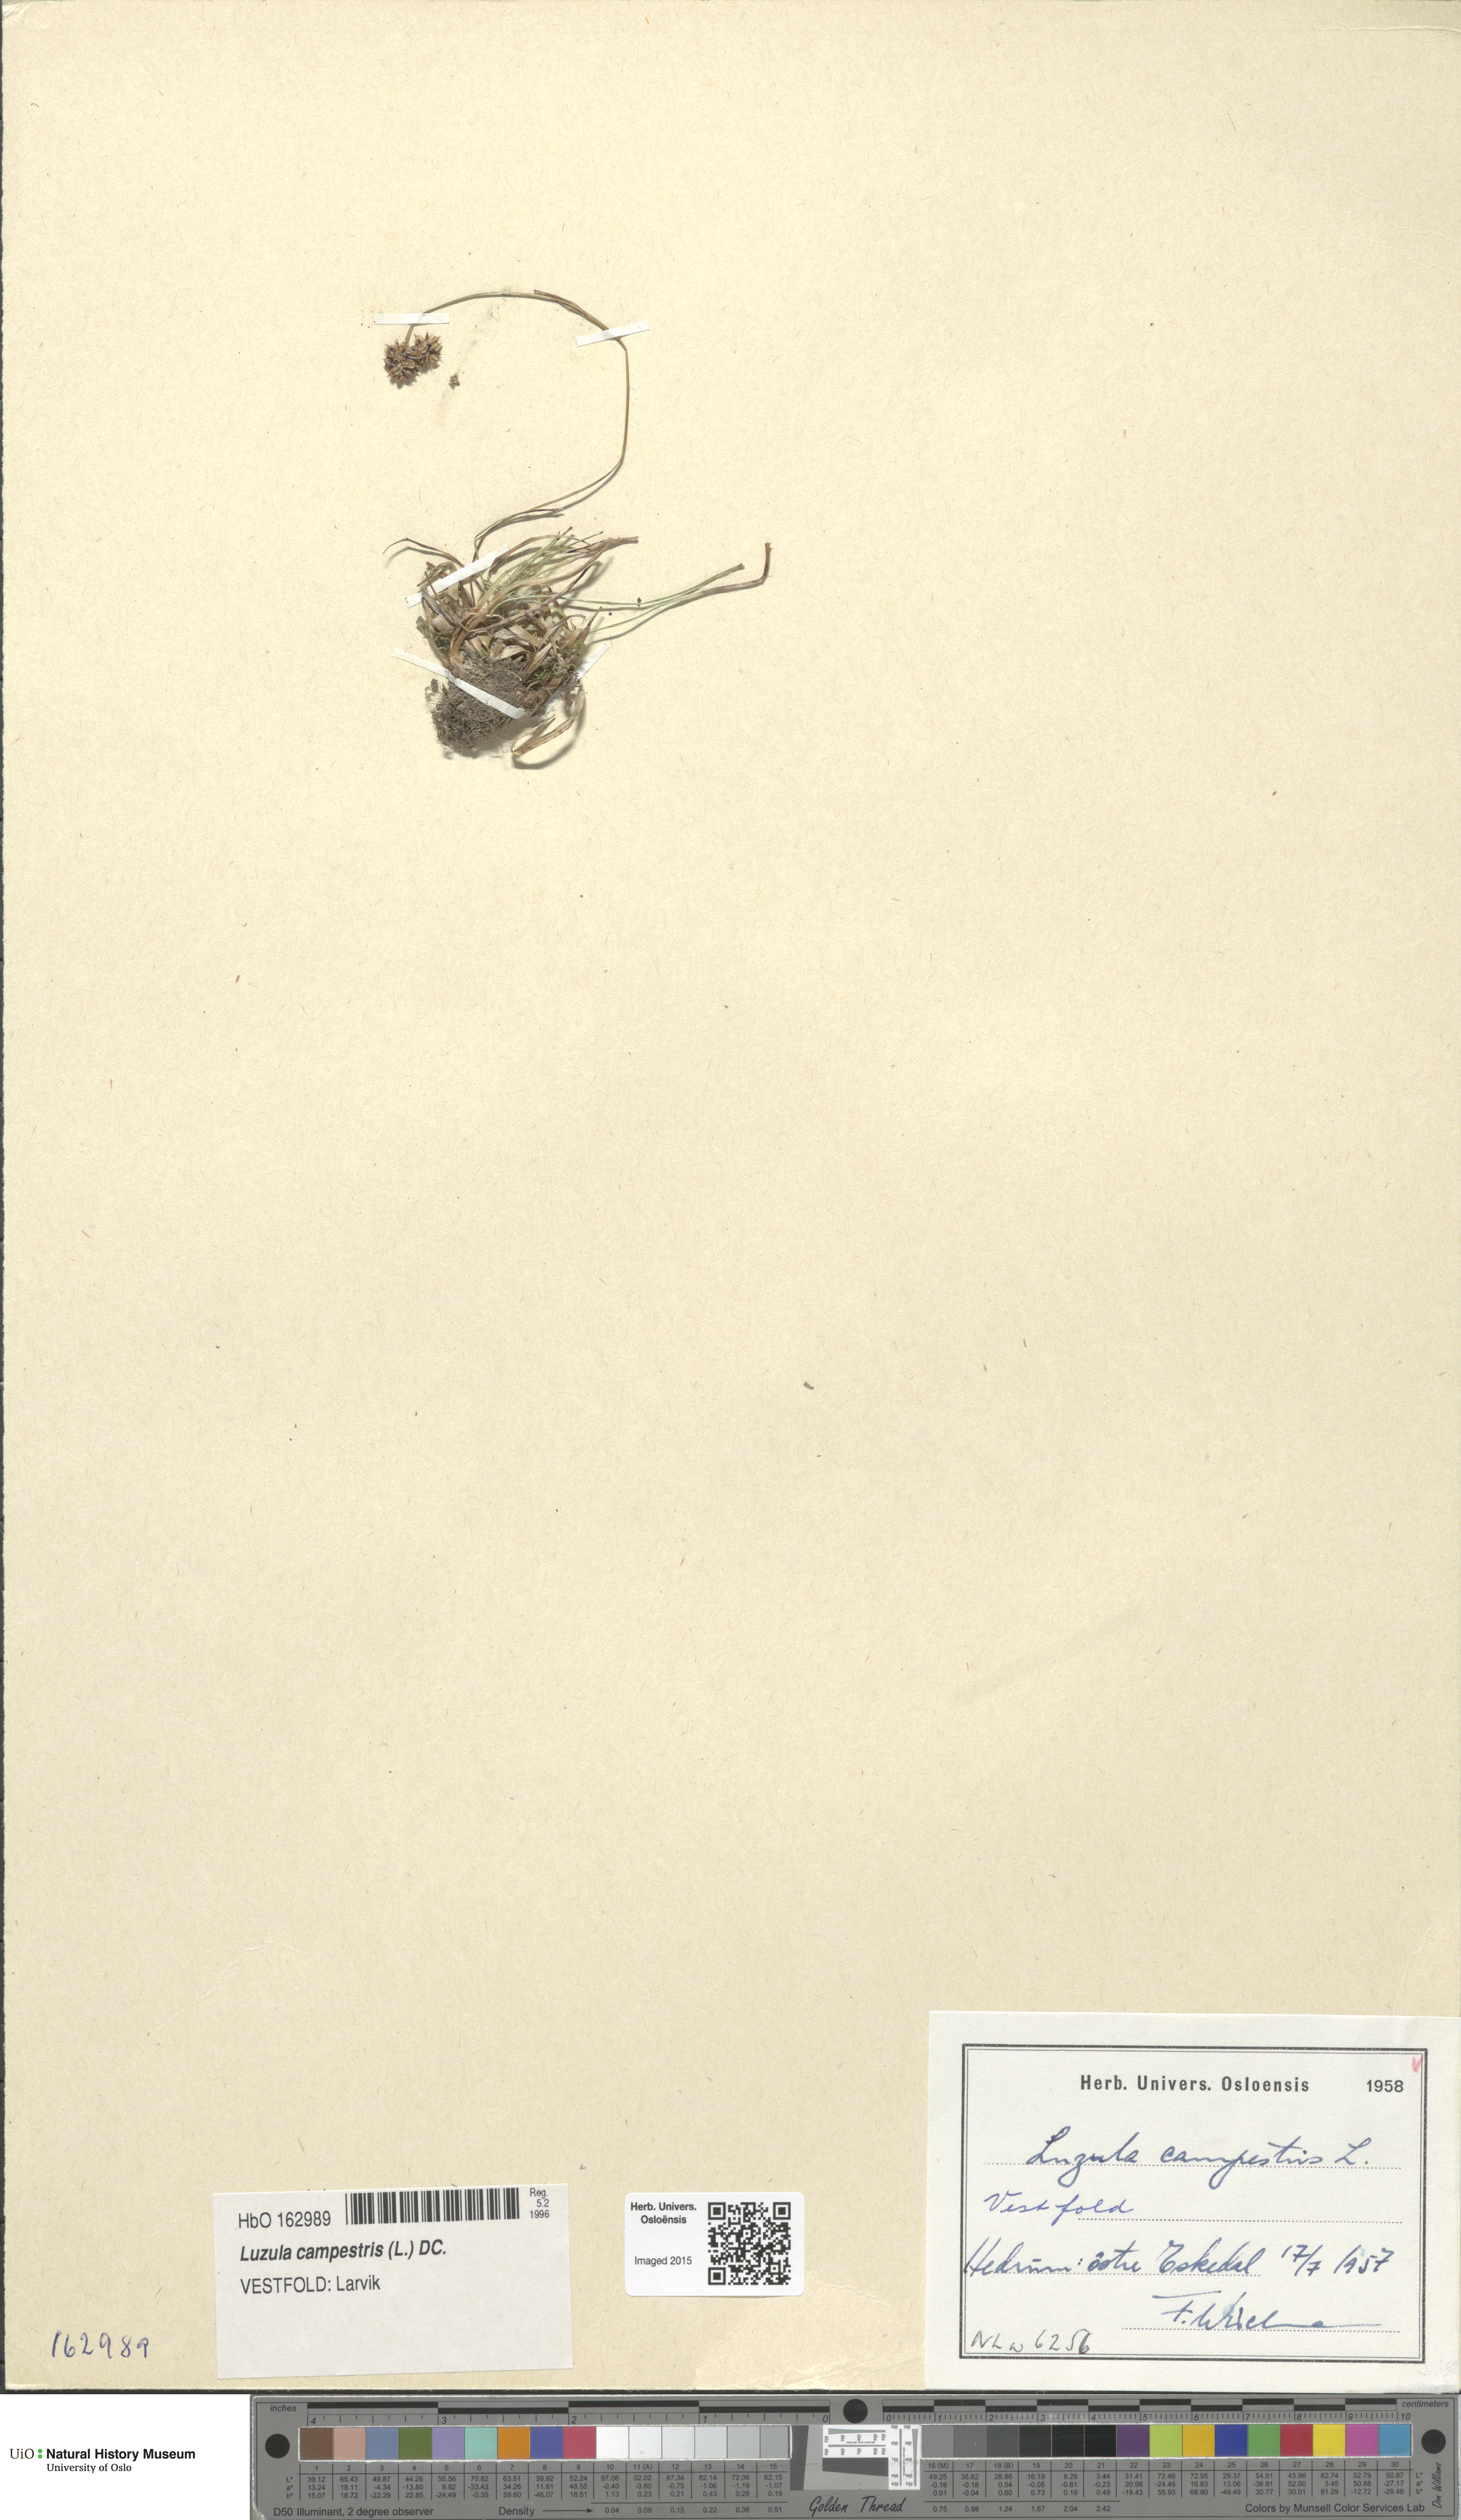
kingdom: Plantae
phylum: Tracheophyta
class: Liliopsida
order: Poales
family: Juncaceae
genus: Luzula
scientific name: Luzula campestris
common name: Field wood-rush
